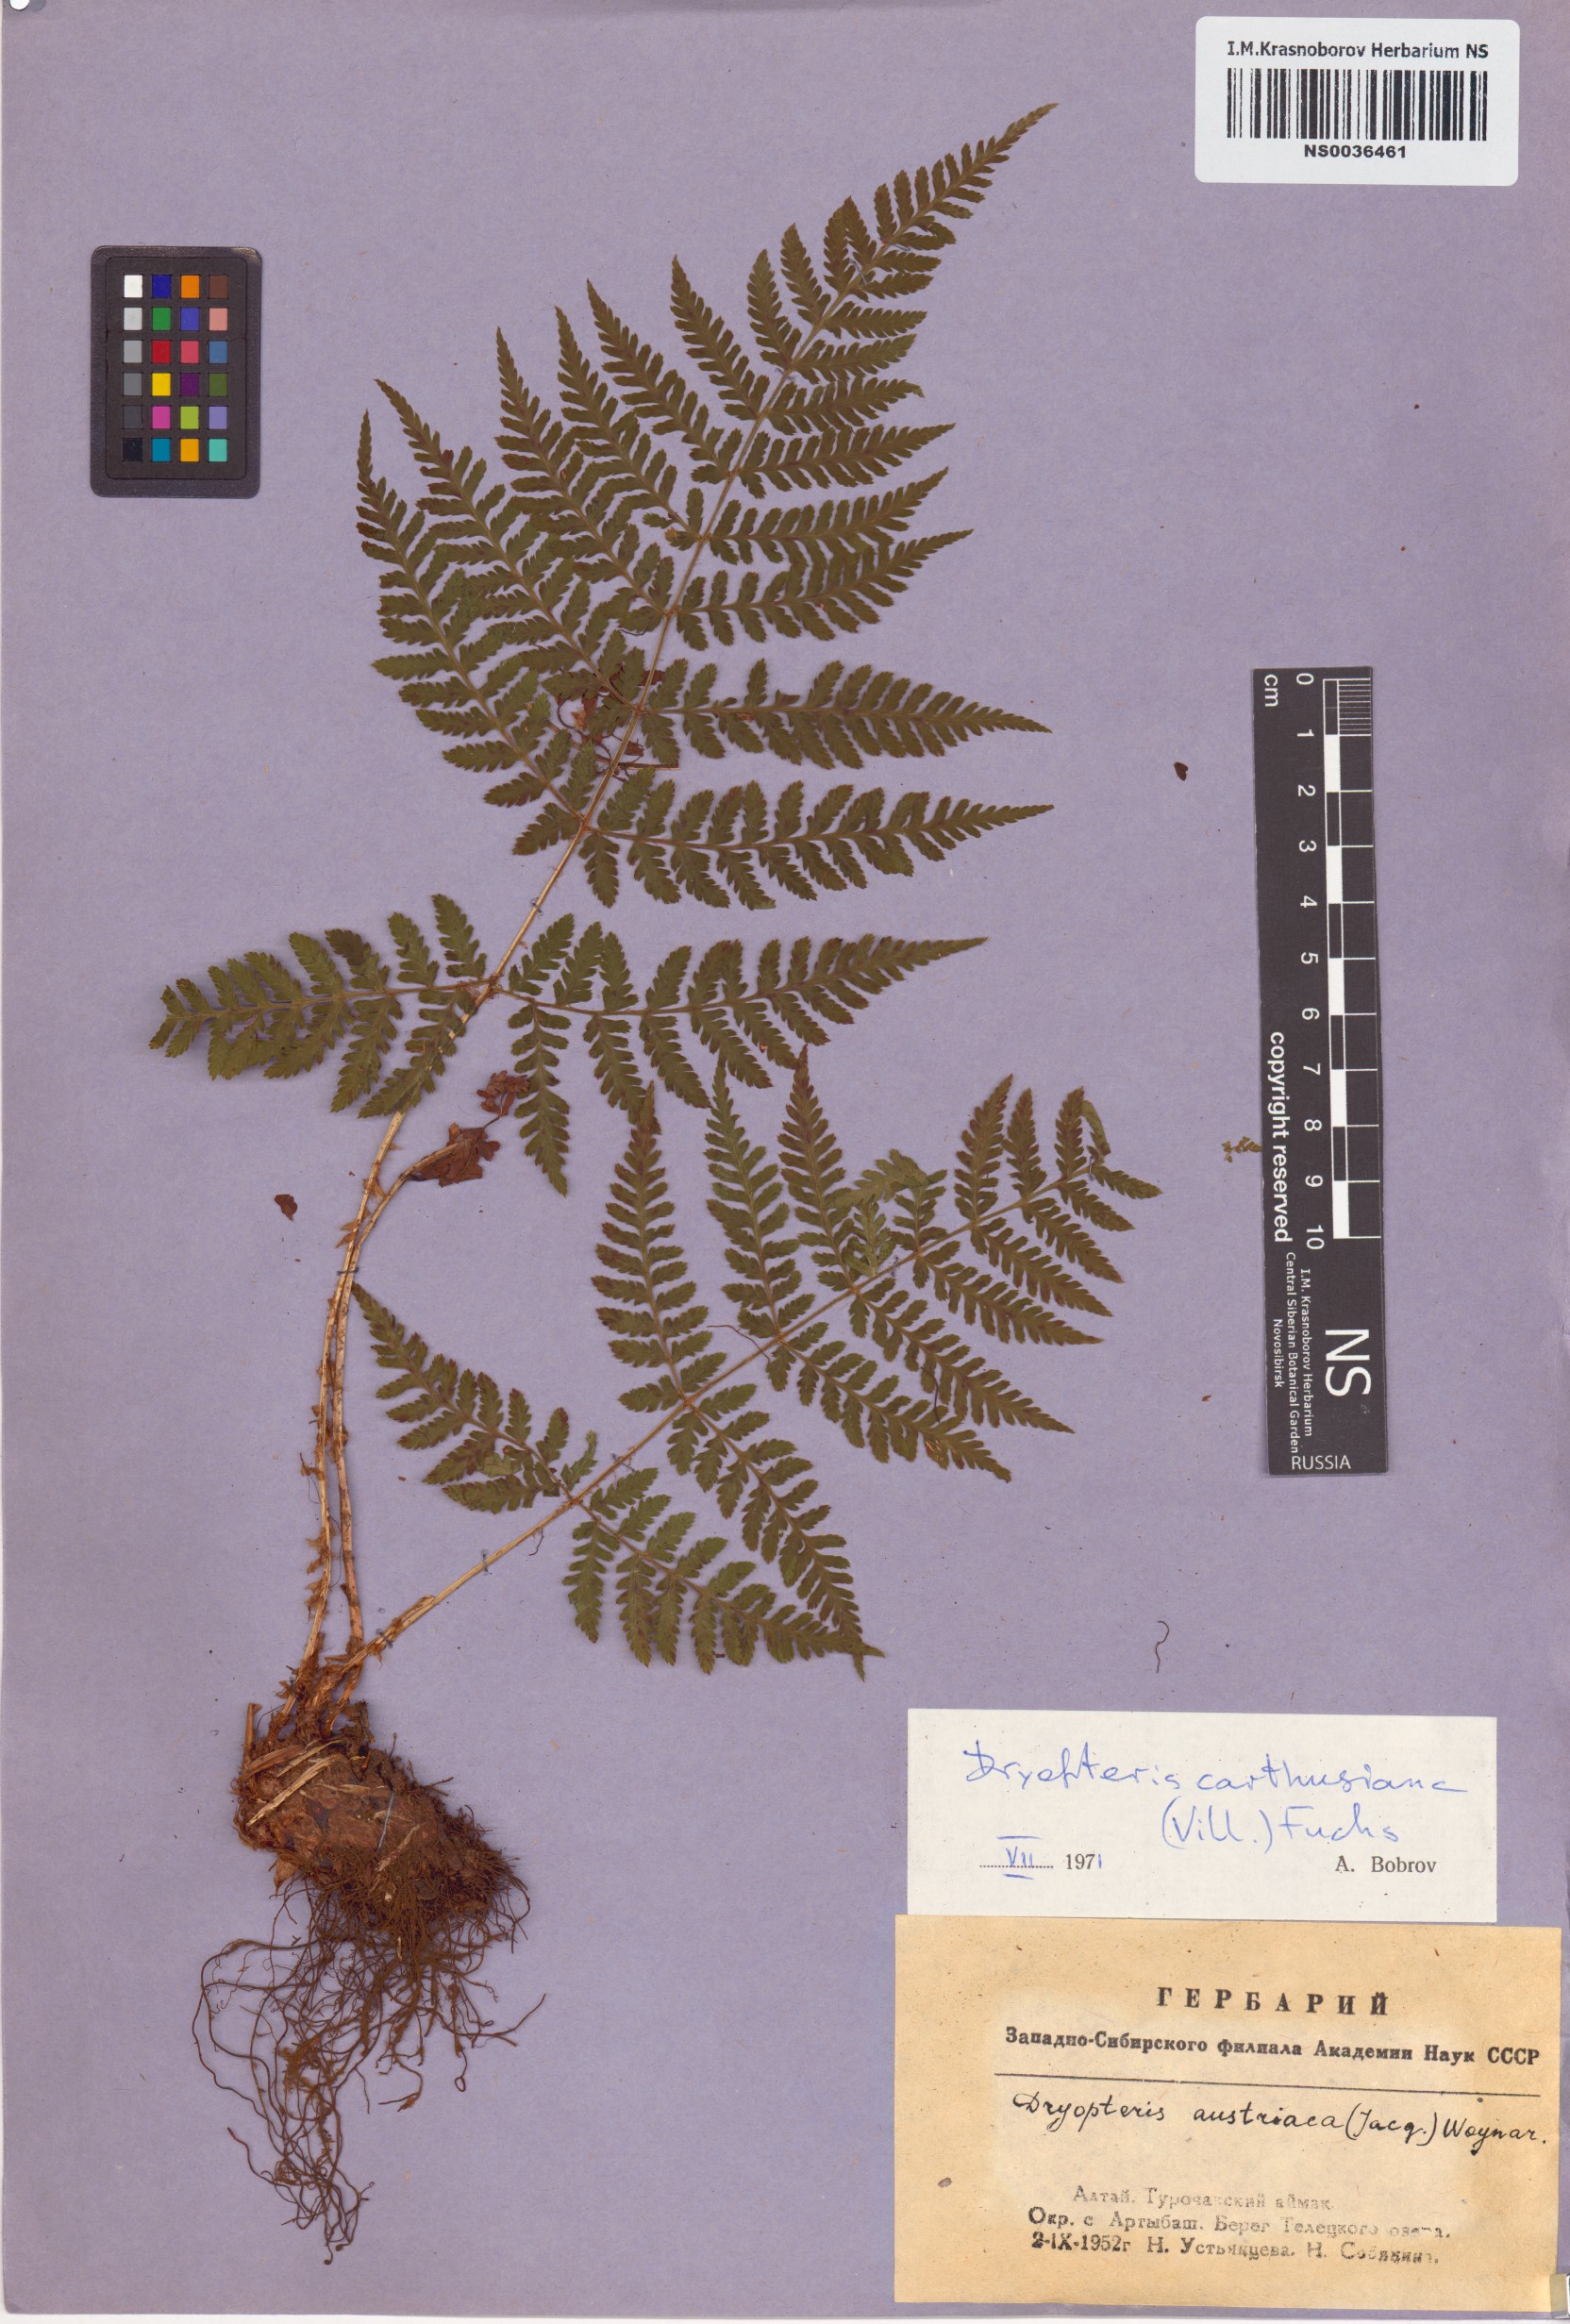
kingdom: Plantae
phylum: Tracheophyta
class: Polypodiopsida
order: Polypodiales
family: Dryopteridaceae
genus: Dryopteris
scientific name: Dryopteris carthusiana
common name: Narrow buckler-fern
